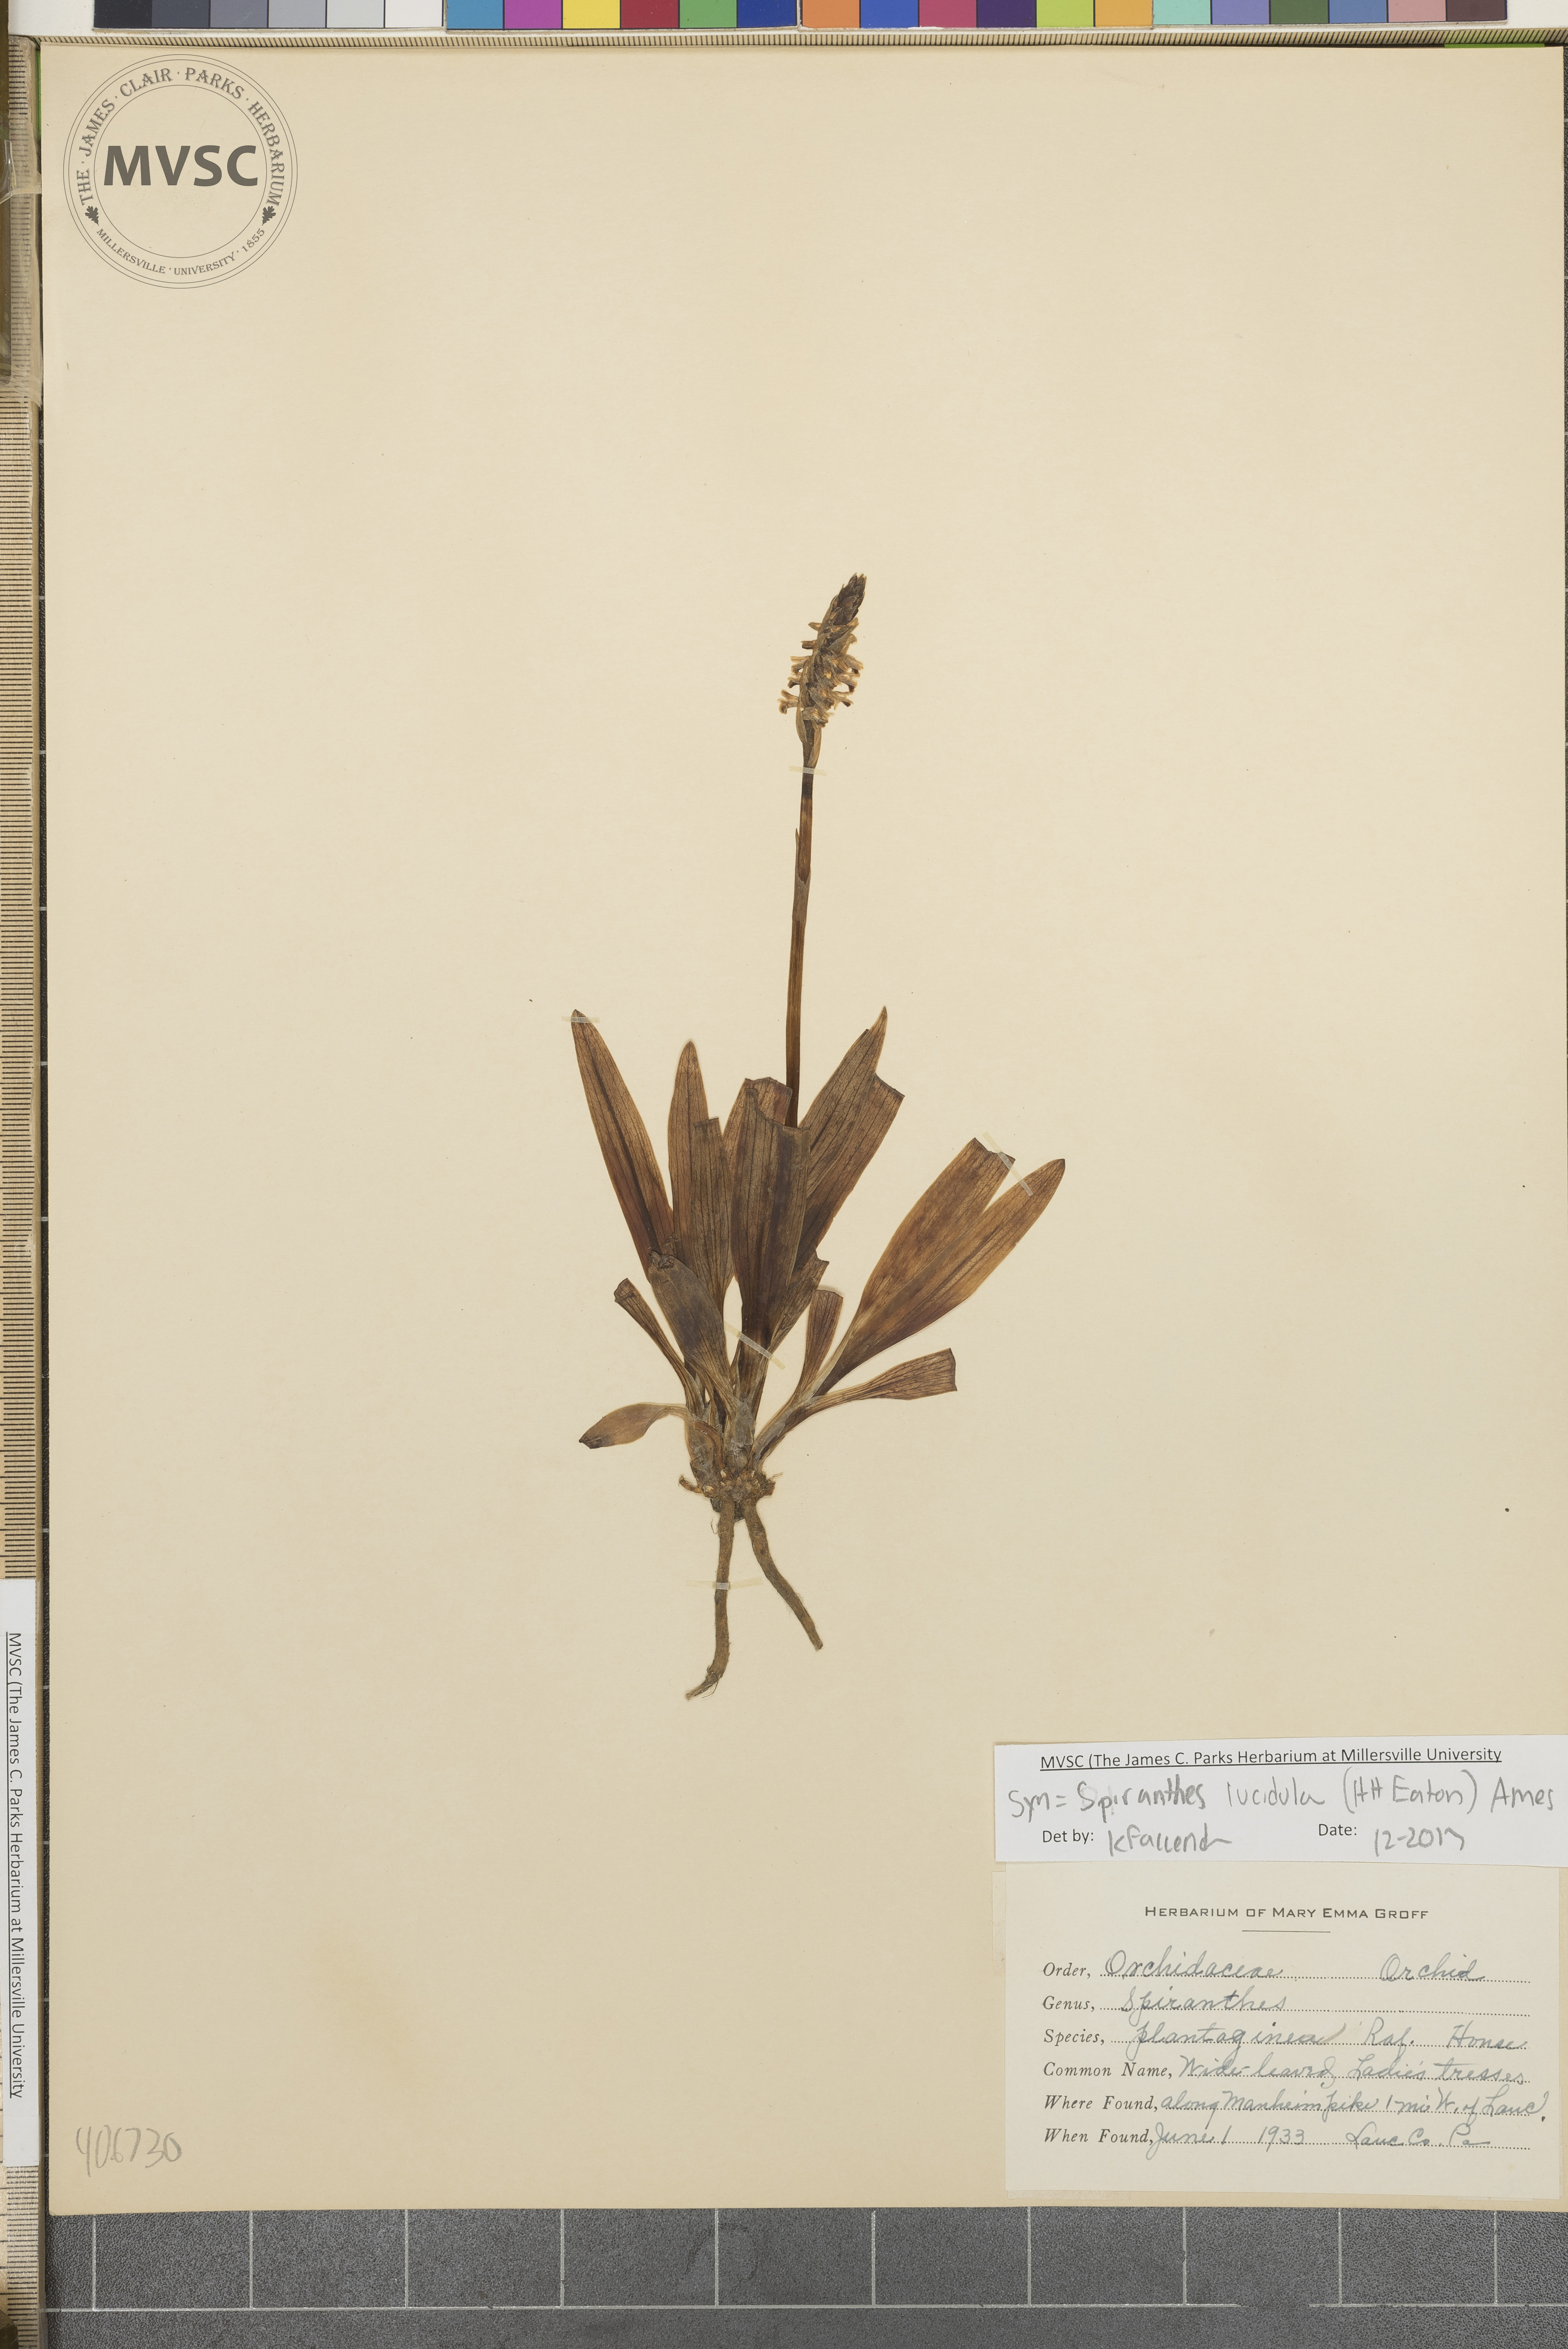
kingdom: Plantae
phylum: Tracheophyta
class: Liliopsida
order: Asparagales
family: Orchidaceae
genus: Spiranthes
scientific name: Spiranthes lucida
